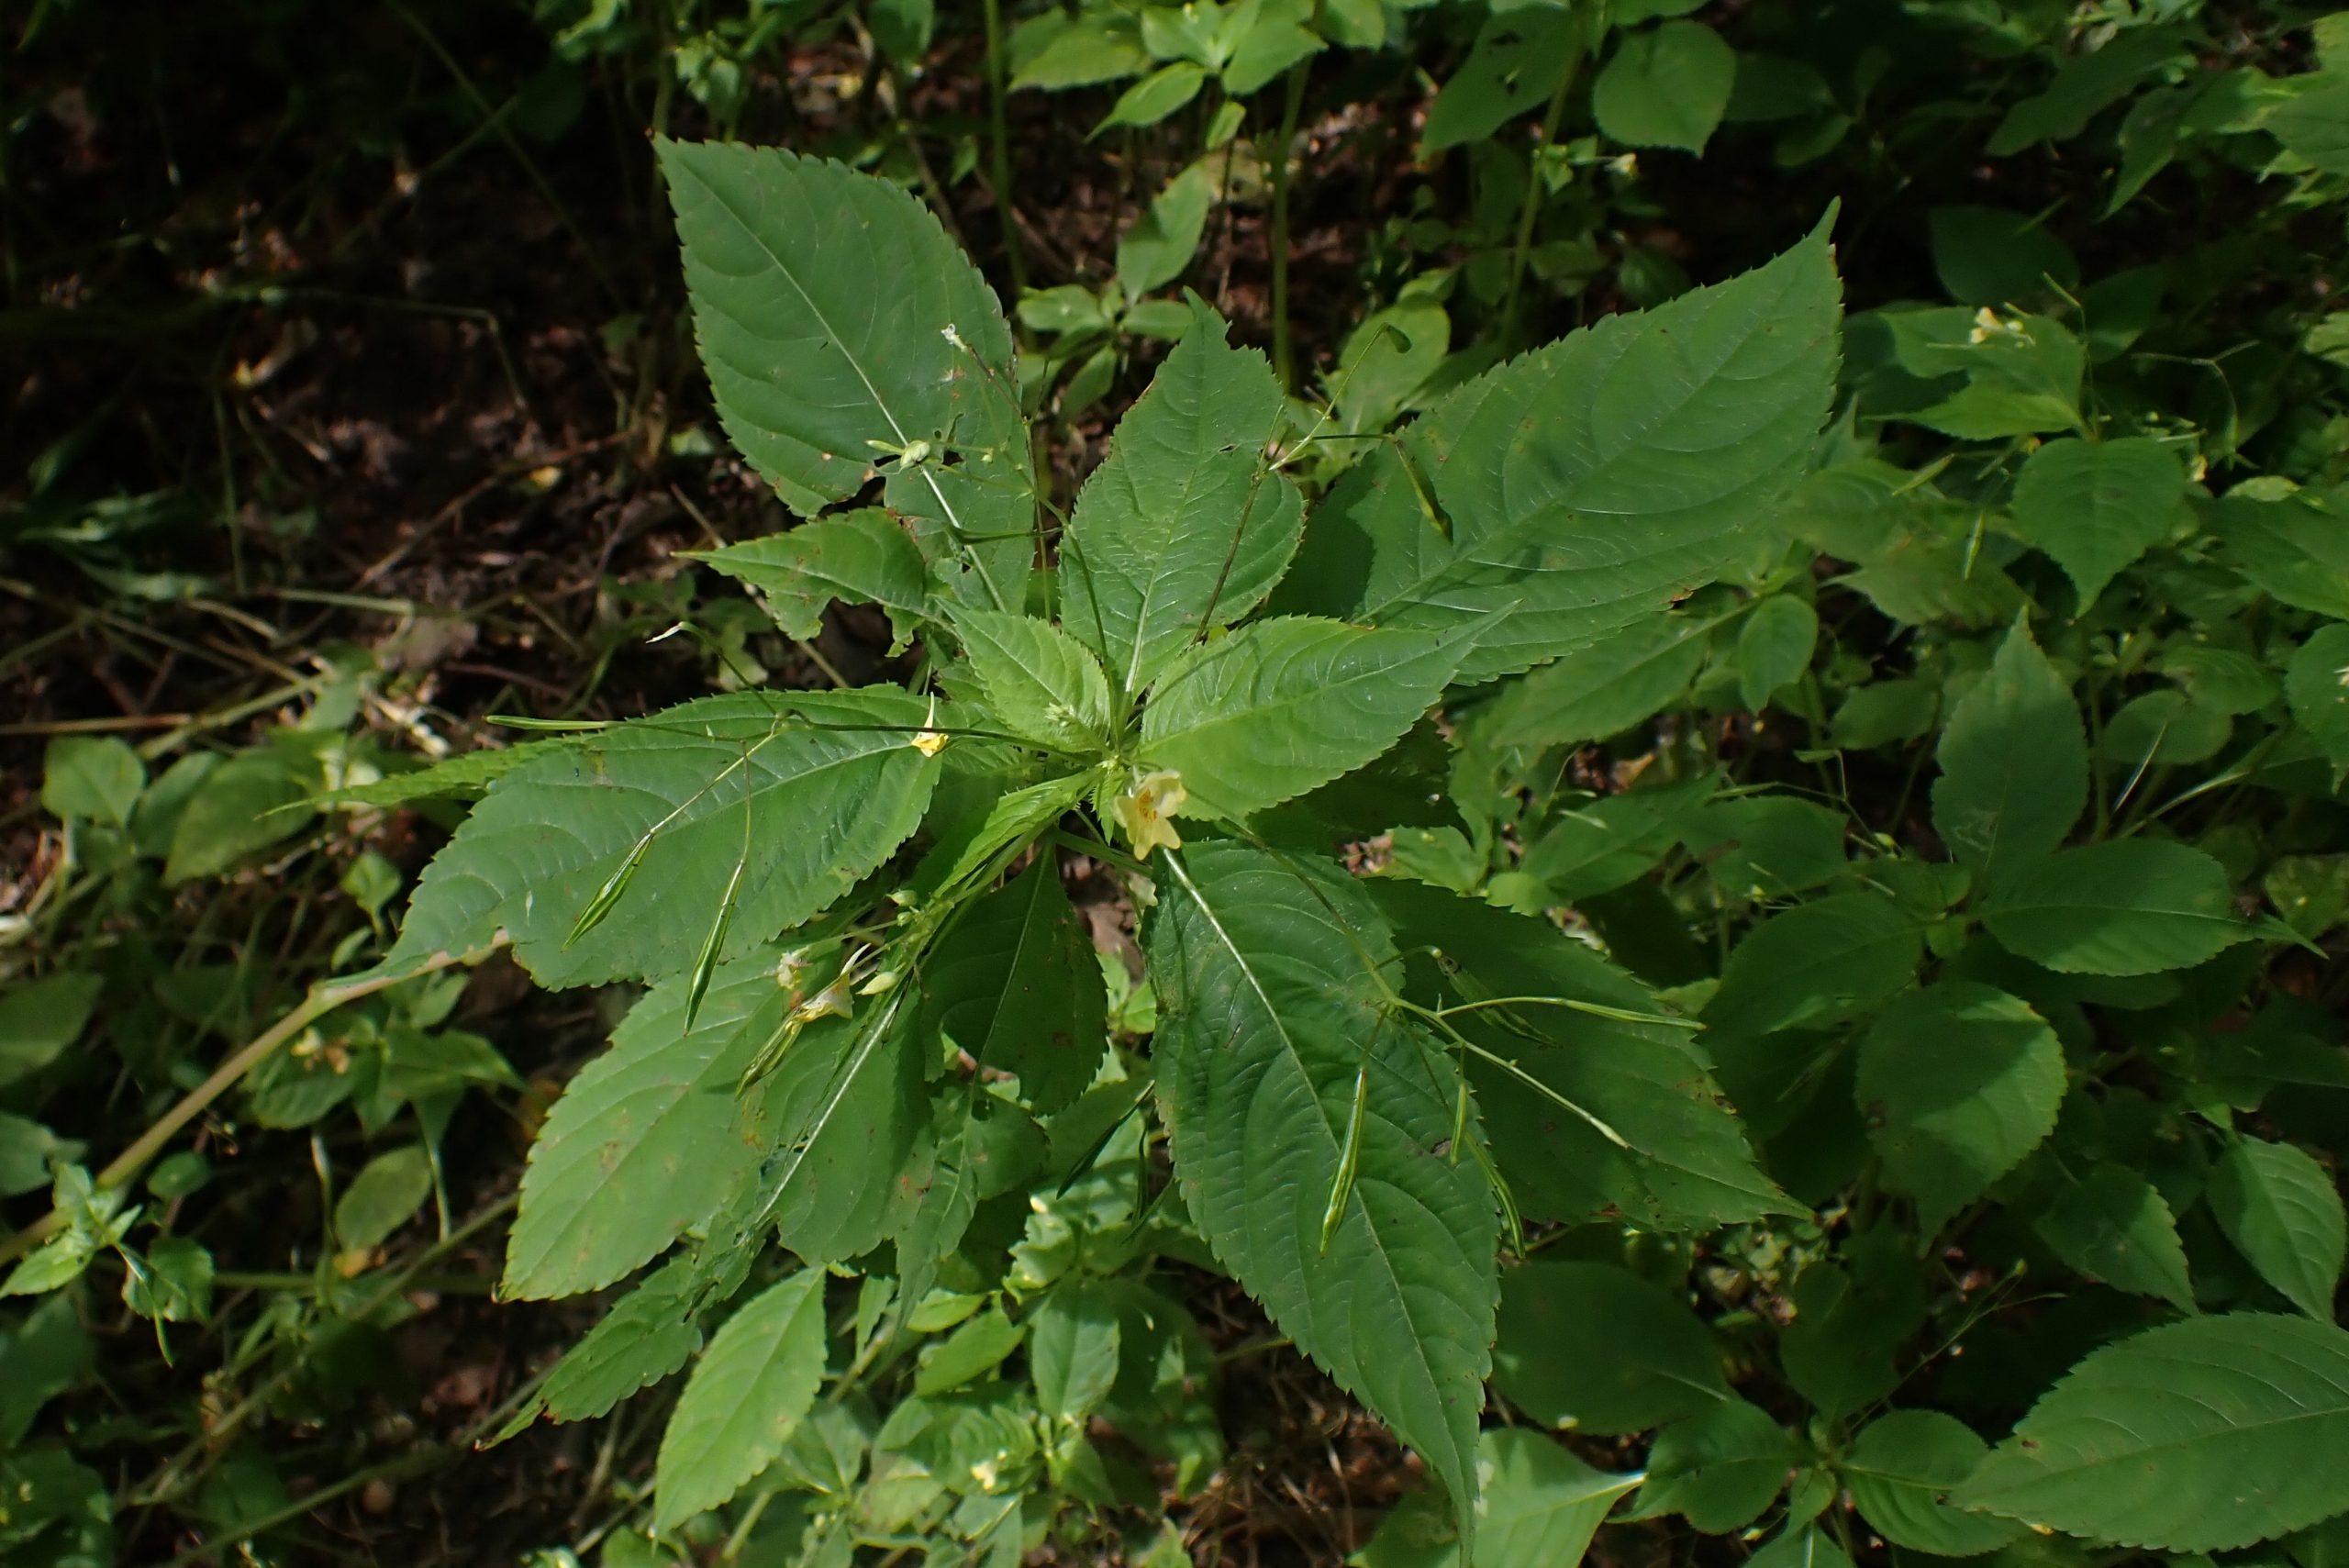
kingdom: Plantae
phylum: Tracheophyta
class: Magnoliopsida
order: Ericales
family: Balsaminaceae
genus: Impatiens
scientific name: Impatiens parviflora
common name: Småblomstret balsamin
